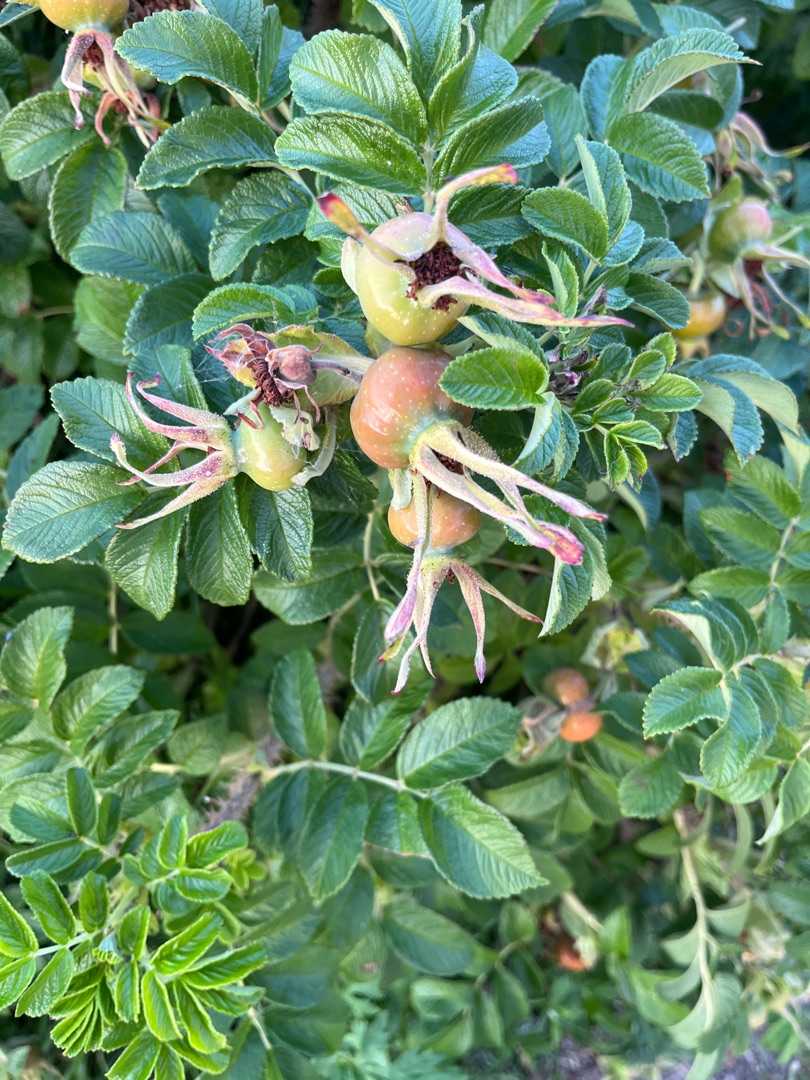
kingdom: Plantae
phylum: Tracheophyta
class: Magnoliopsida
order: Rosales
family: Rosaceae
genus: Rosa
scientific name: Rosa rugosa
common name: Rynket rose
